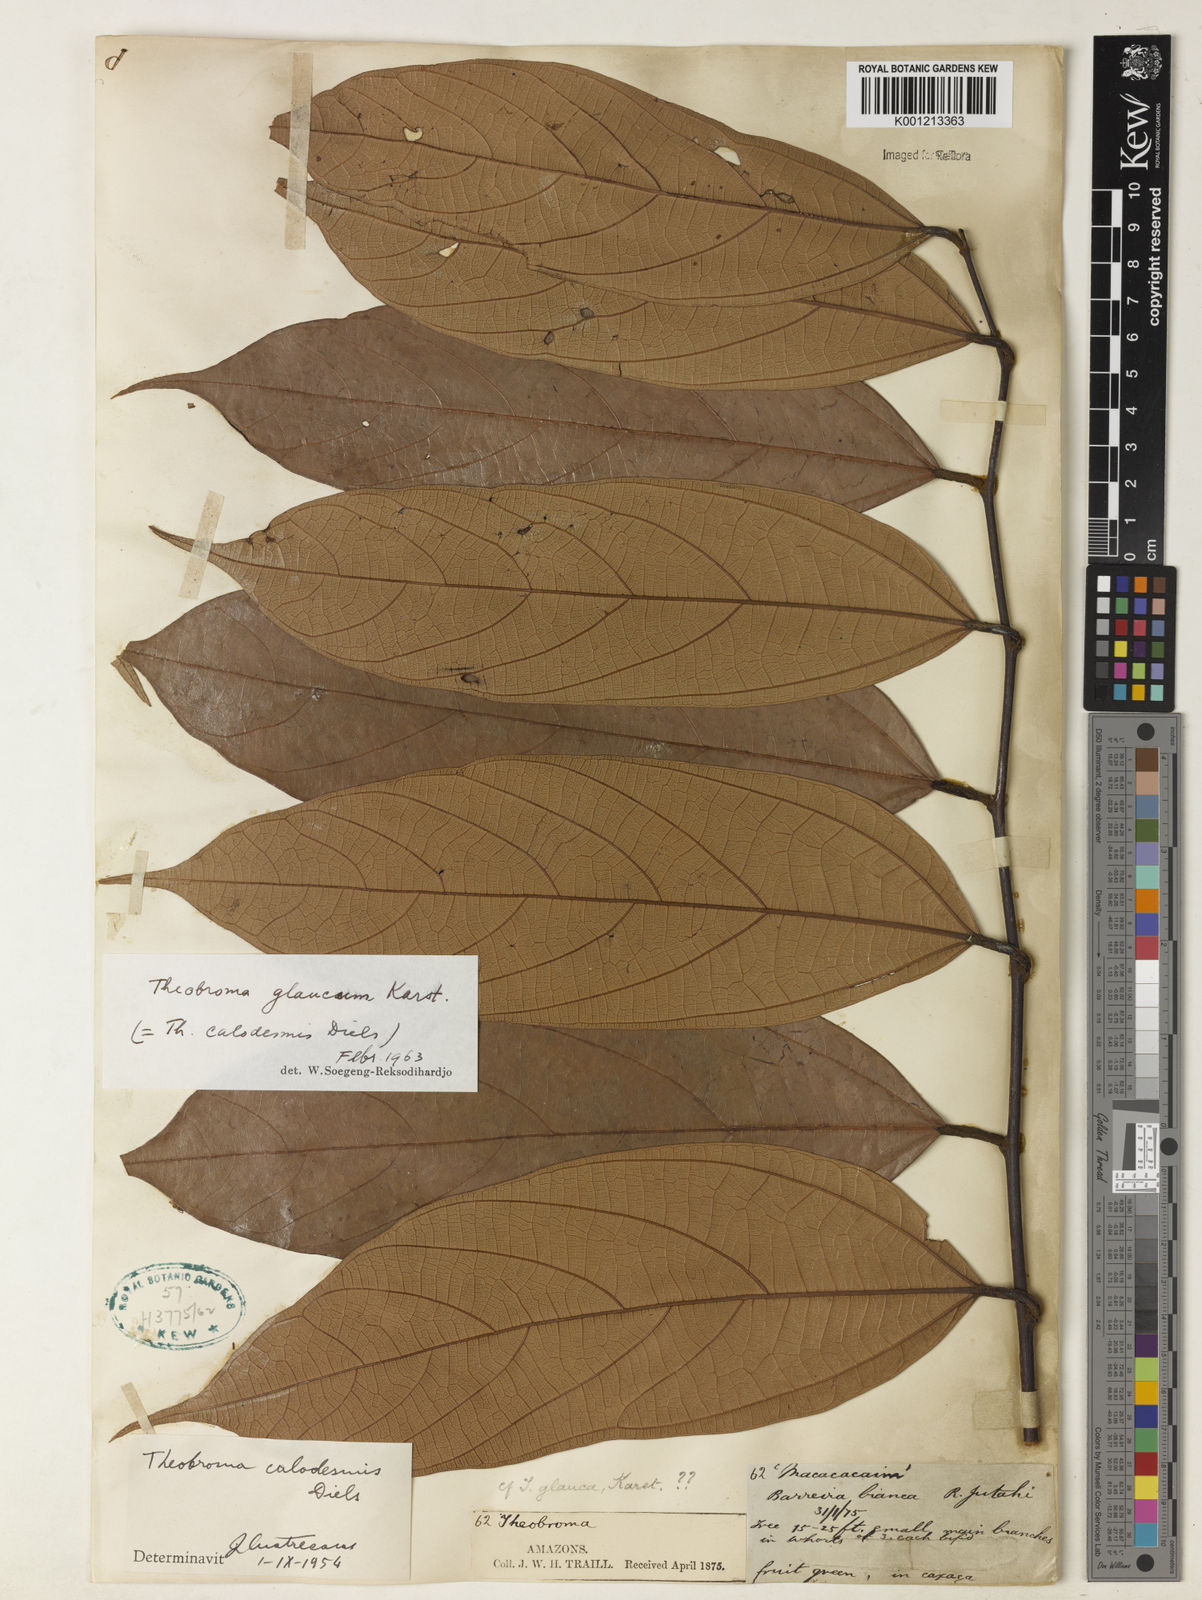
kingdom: Plantae
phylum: Tracheophyta
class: Magnoliopsida
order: Malvales
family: Malvaceae
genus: Theobroma
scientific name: Theobroma glaucum
